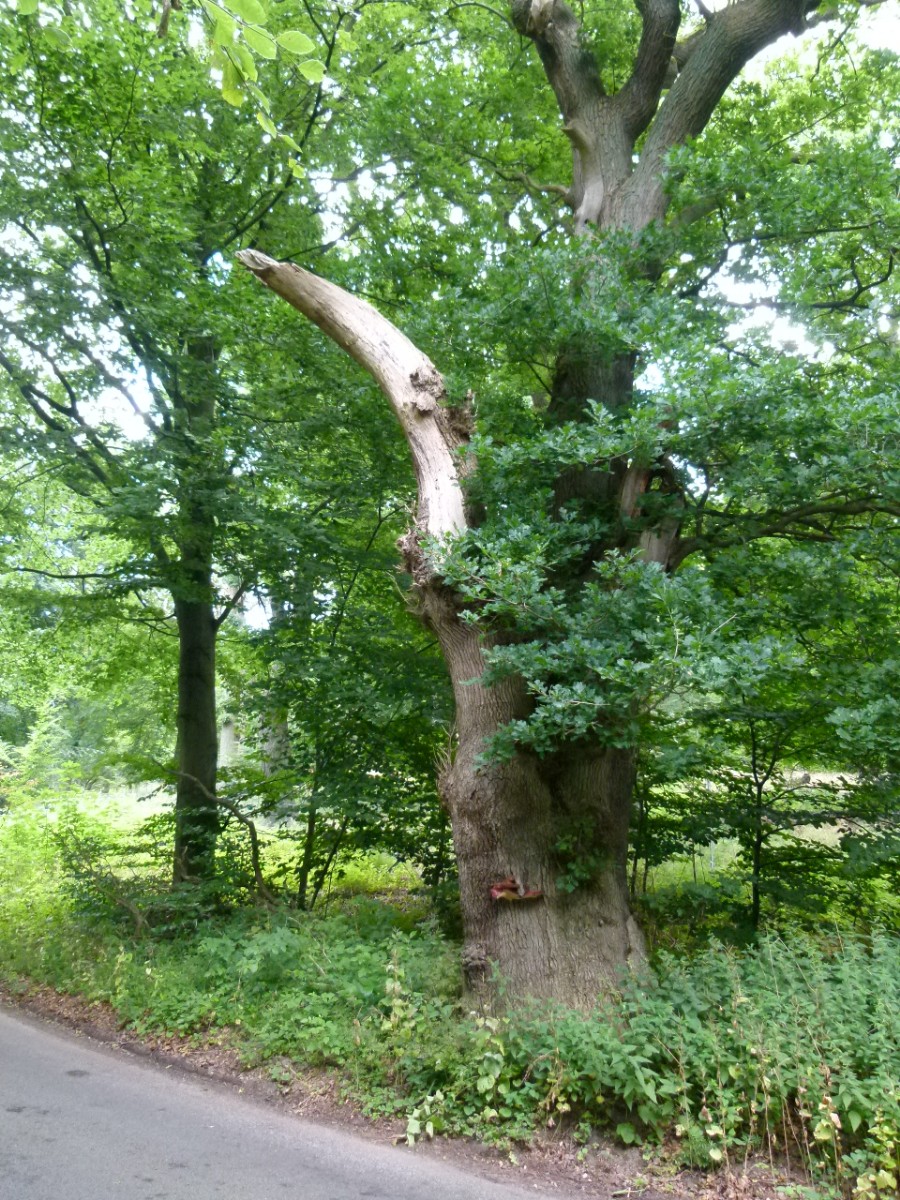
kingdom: Fungi
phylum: Basidiomycota
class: Agaricomycetes
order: Agaricales
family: Fistulinaceae
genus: Fistulina
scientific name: Fistulina hepatica
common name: oksetunge
